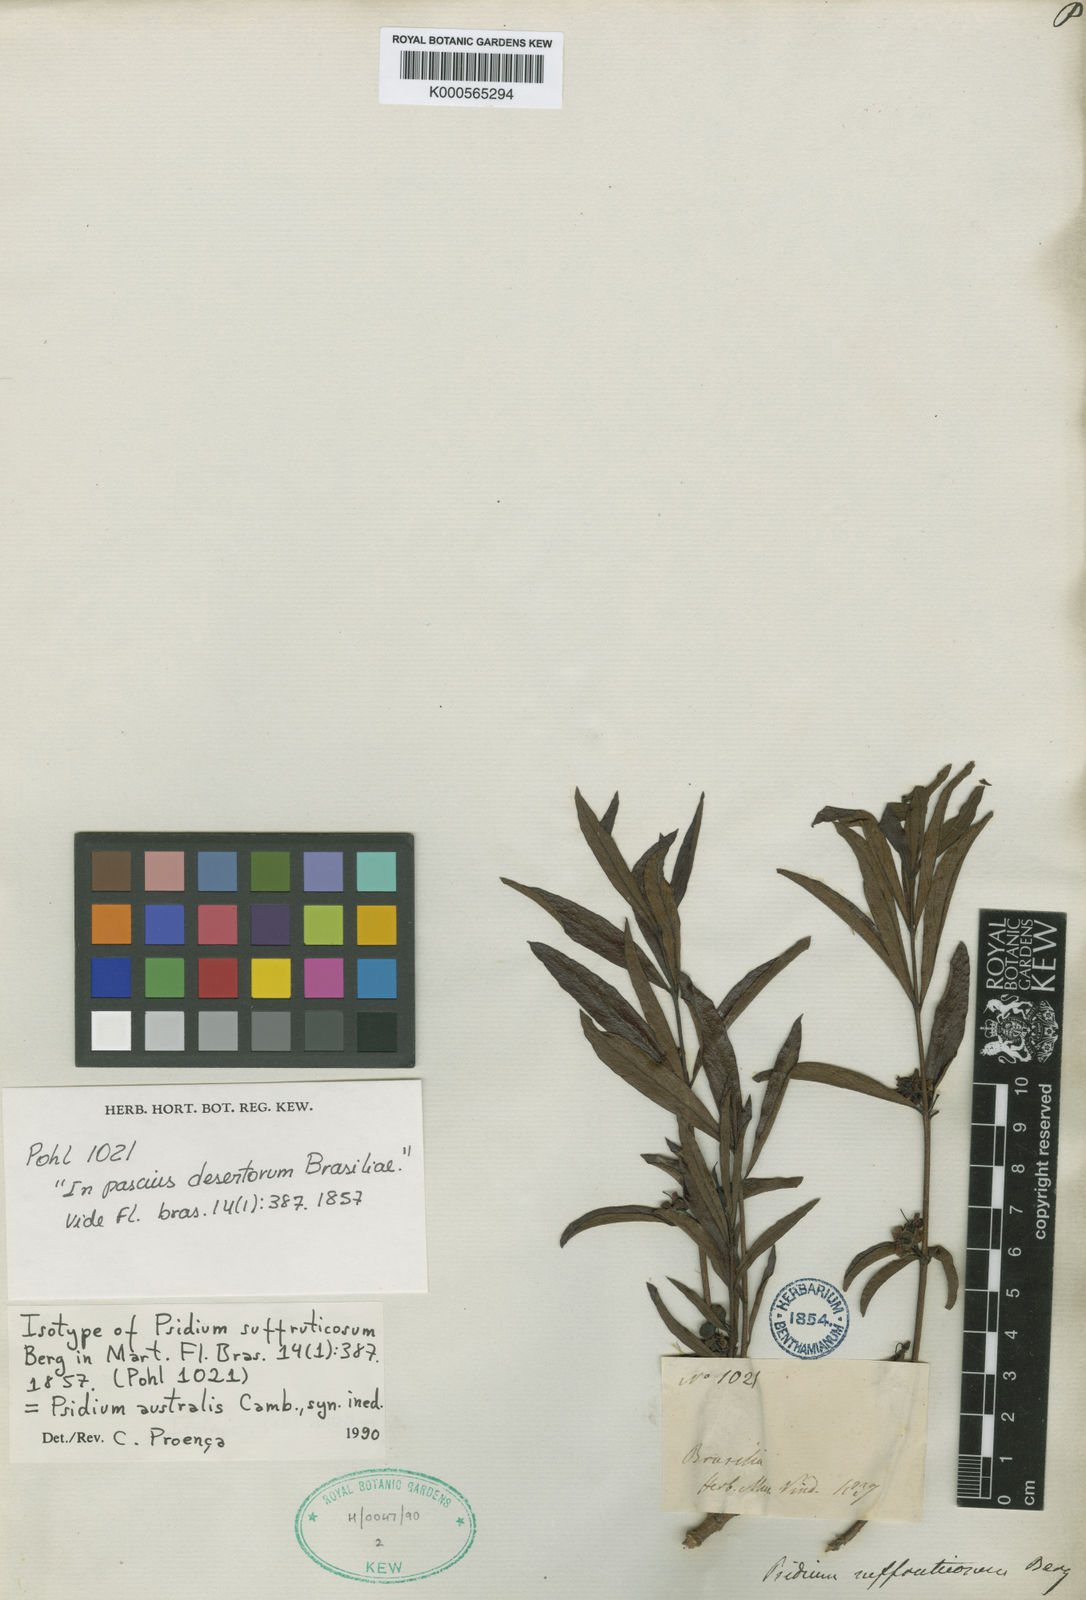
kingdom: Plantae
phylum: Tracheophyta
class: Magnoliopsida
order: Myrtales
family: Myrtaceae
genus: Psidium
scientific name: Psidium australe
